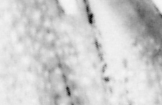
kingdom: Animalia
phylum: Chordata
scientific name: Chordata
